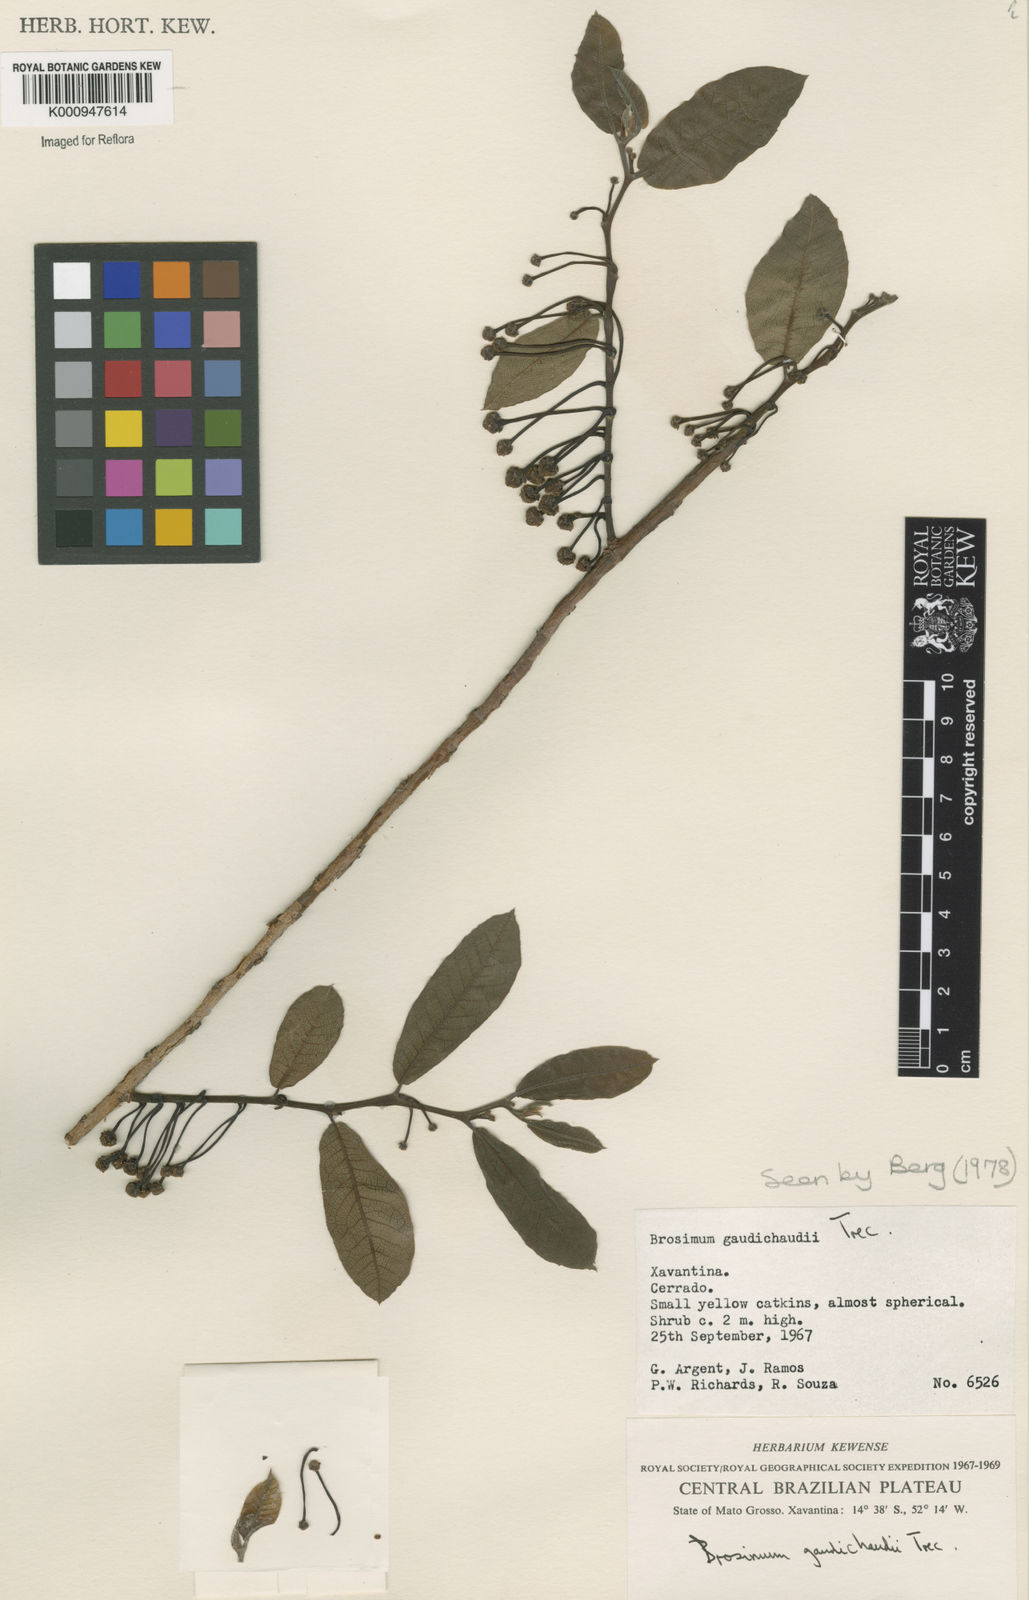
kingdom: Plantae
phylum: Tracheophyta
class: Magnoliopsida
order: Rosales
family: Moraceae
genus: Brosimum
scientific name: Brosimum
